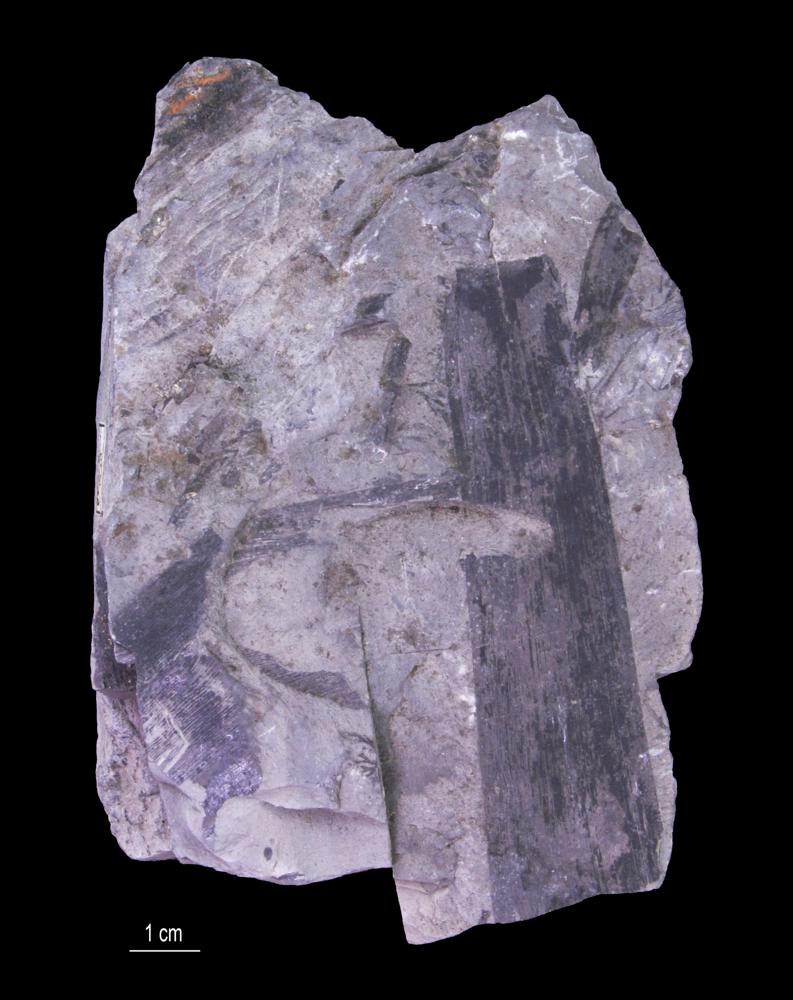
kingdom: Plantae
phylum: Tracheophyta
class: Pinopsida
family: Cordaitaceae
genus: Cordaites
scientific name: Cordaites
